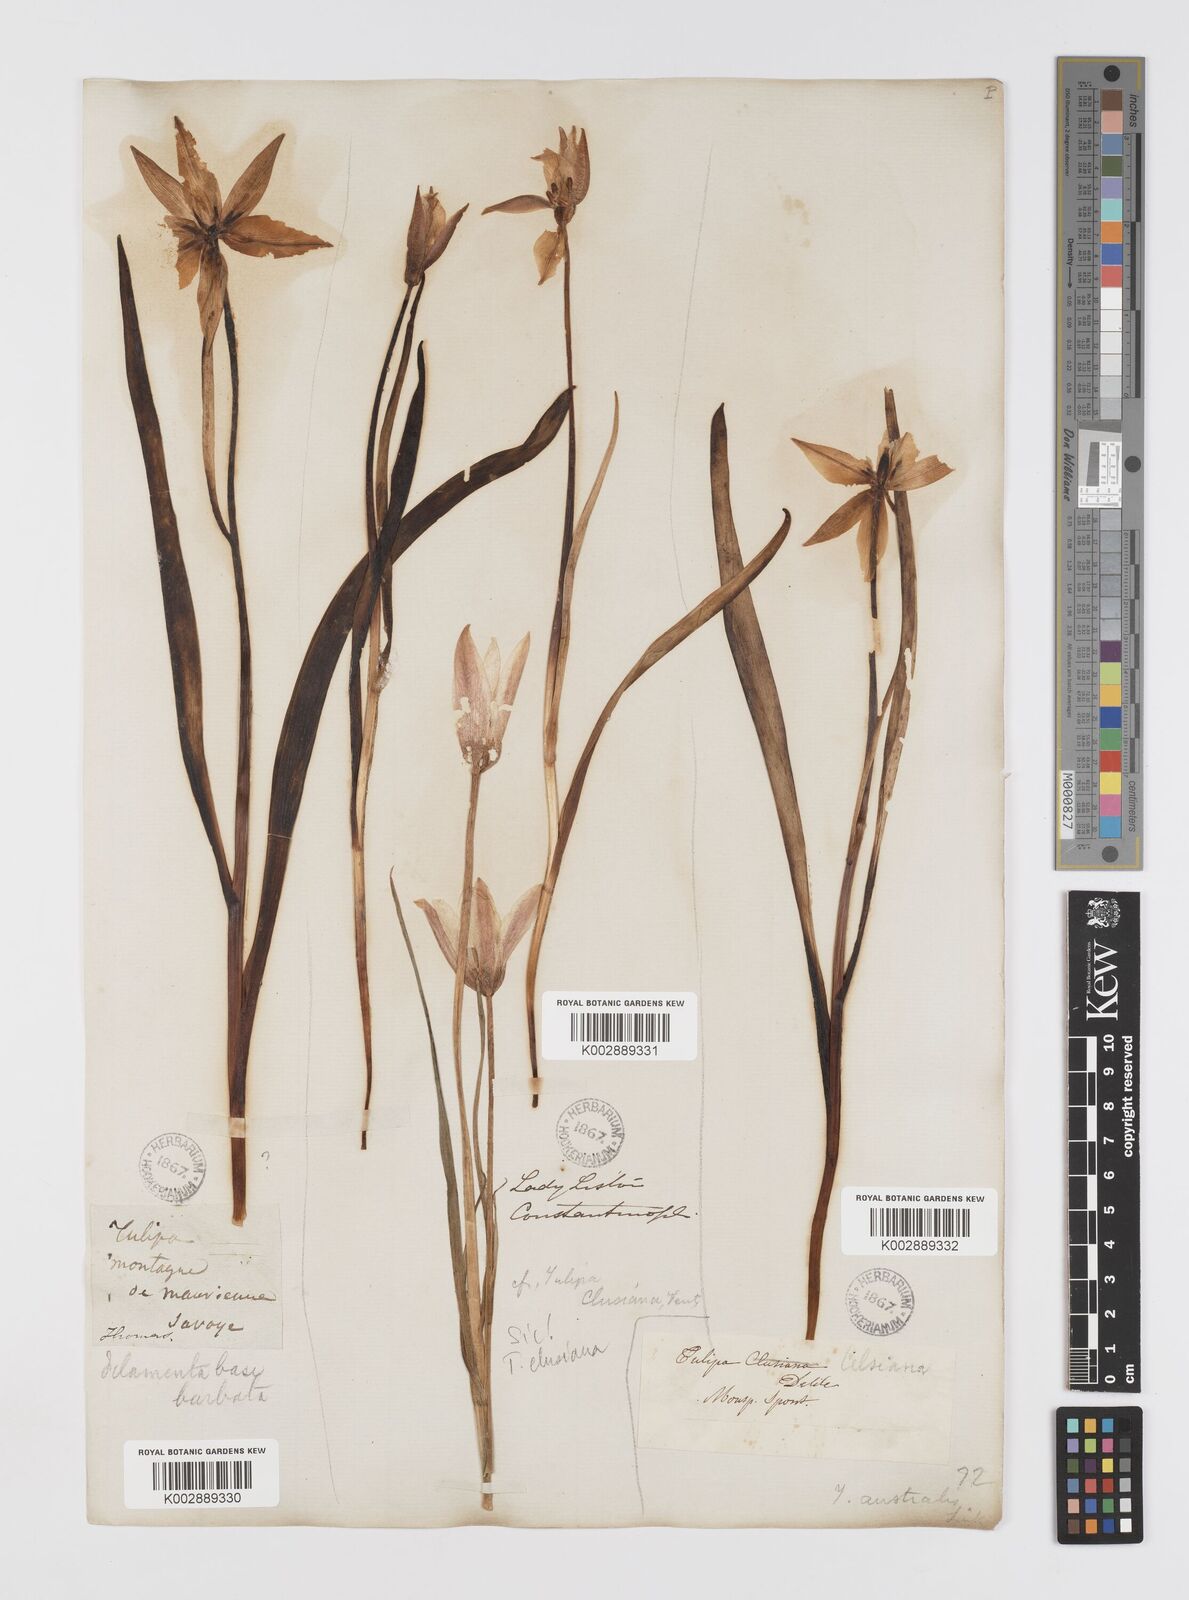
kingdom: Plantae
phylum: Tracheophyta
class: Liliopsida
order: Liliales
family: Liliaceae
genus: Tulipa
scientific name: Tulipa sylvestris
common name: Wild tulip
